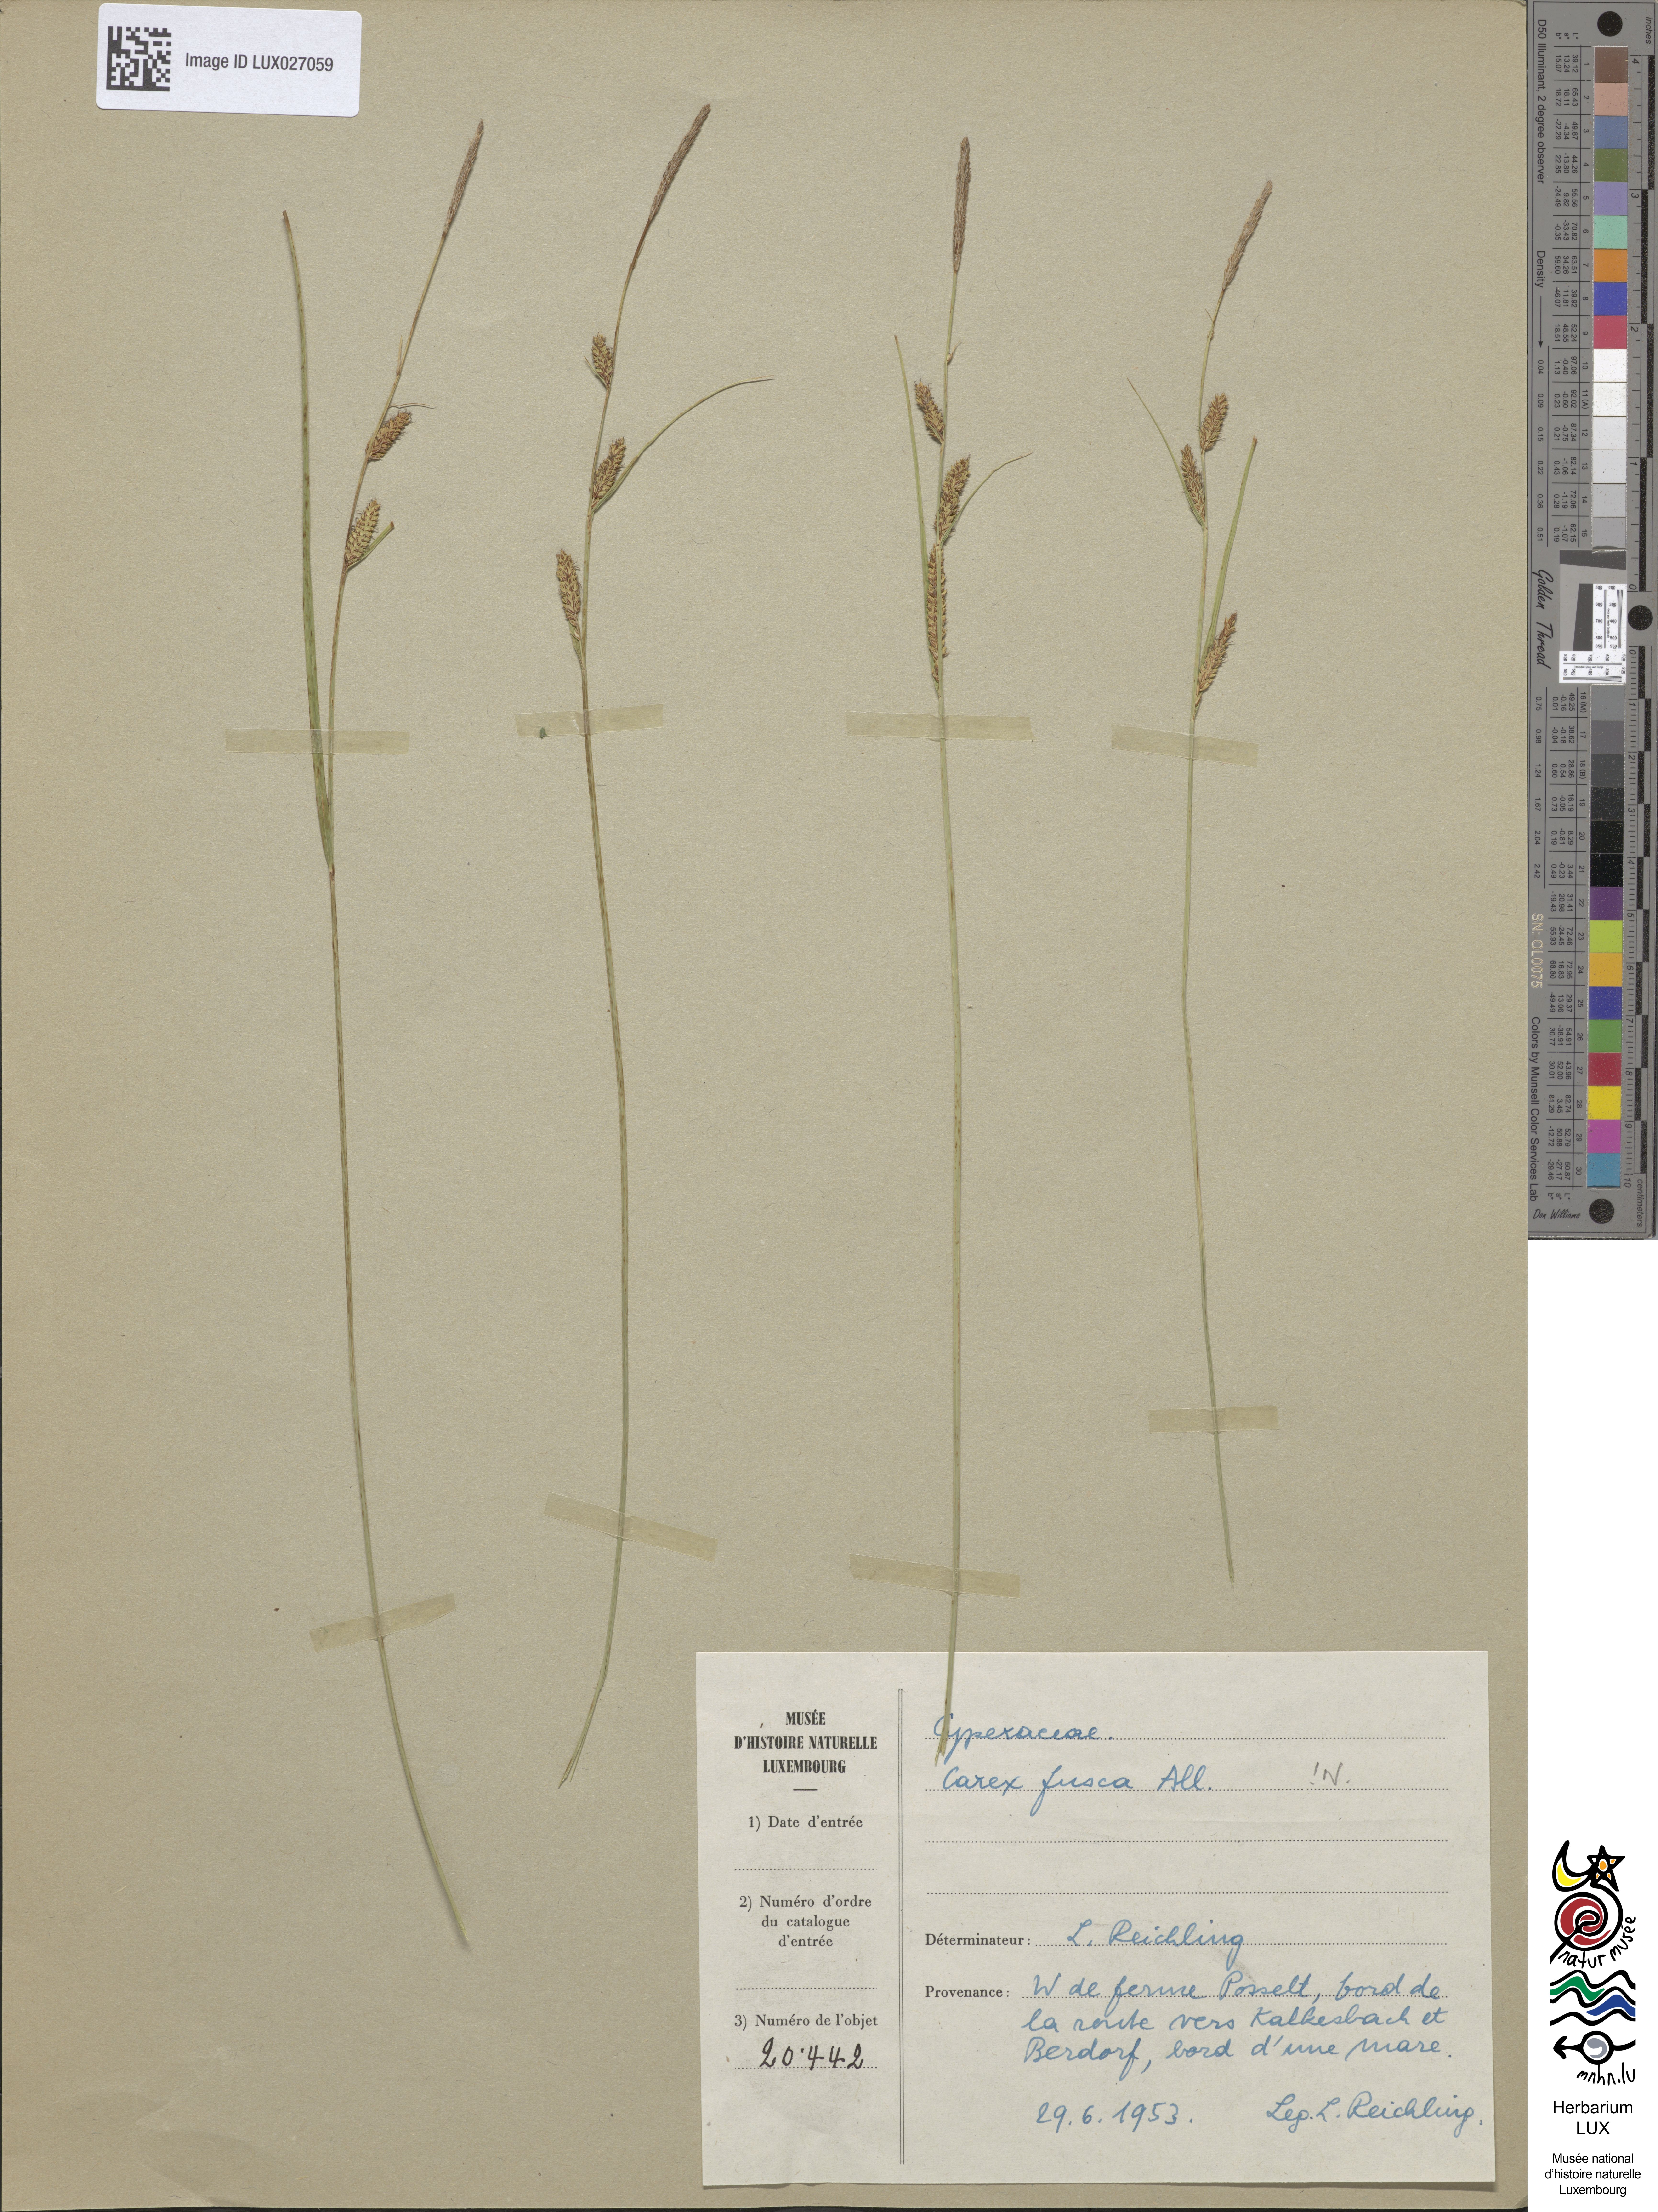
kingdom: Plantae
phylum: Tracheophyta
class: Liliopsida
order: Poales
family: Cyperaceae
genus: Carex
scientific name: Carex nigra
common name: Common sedge
